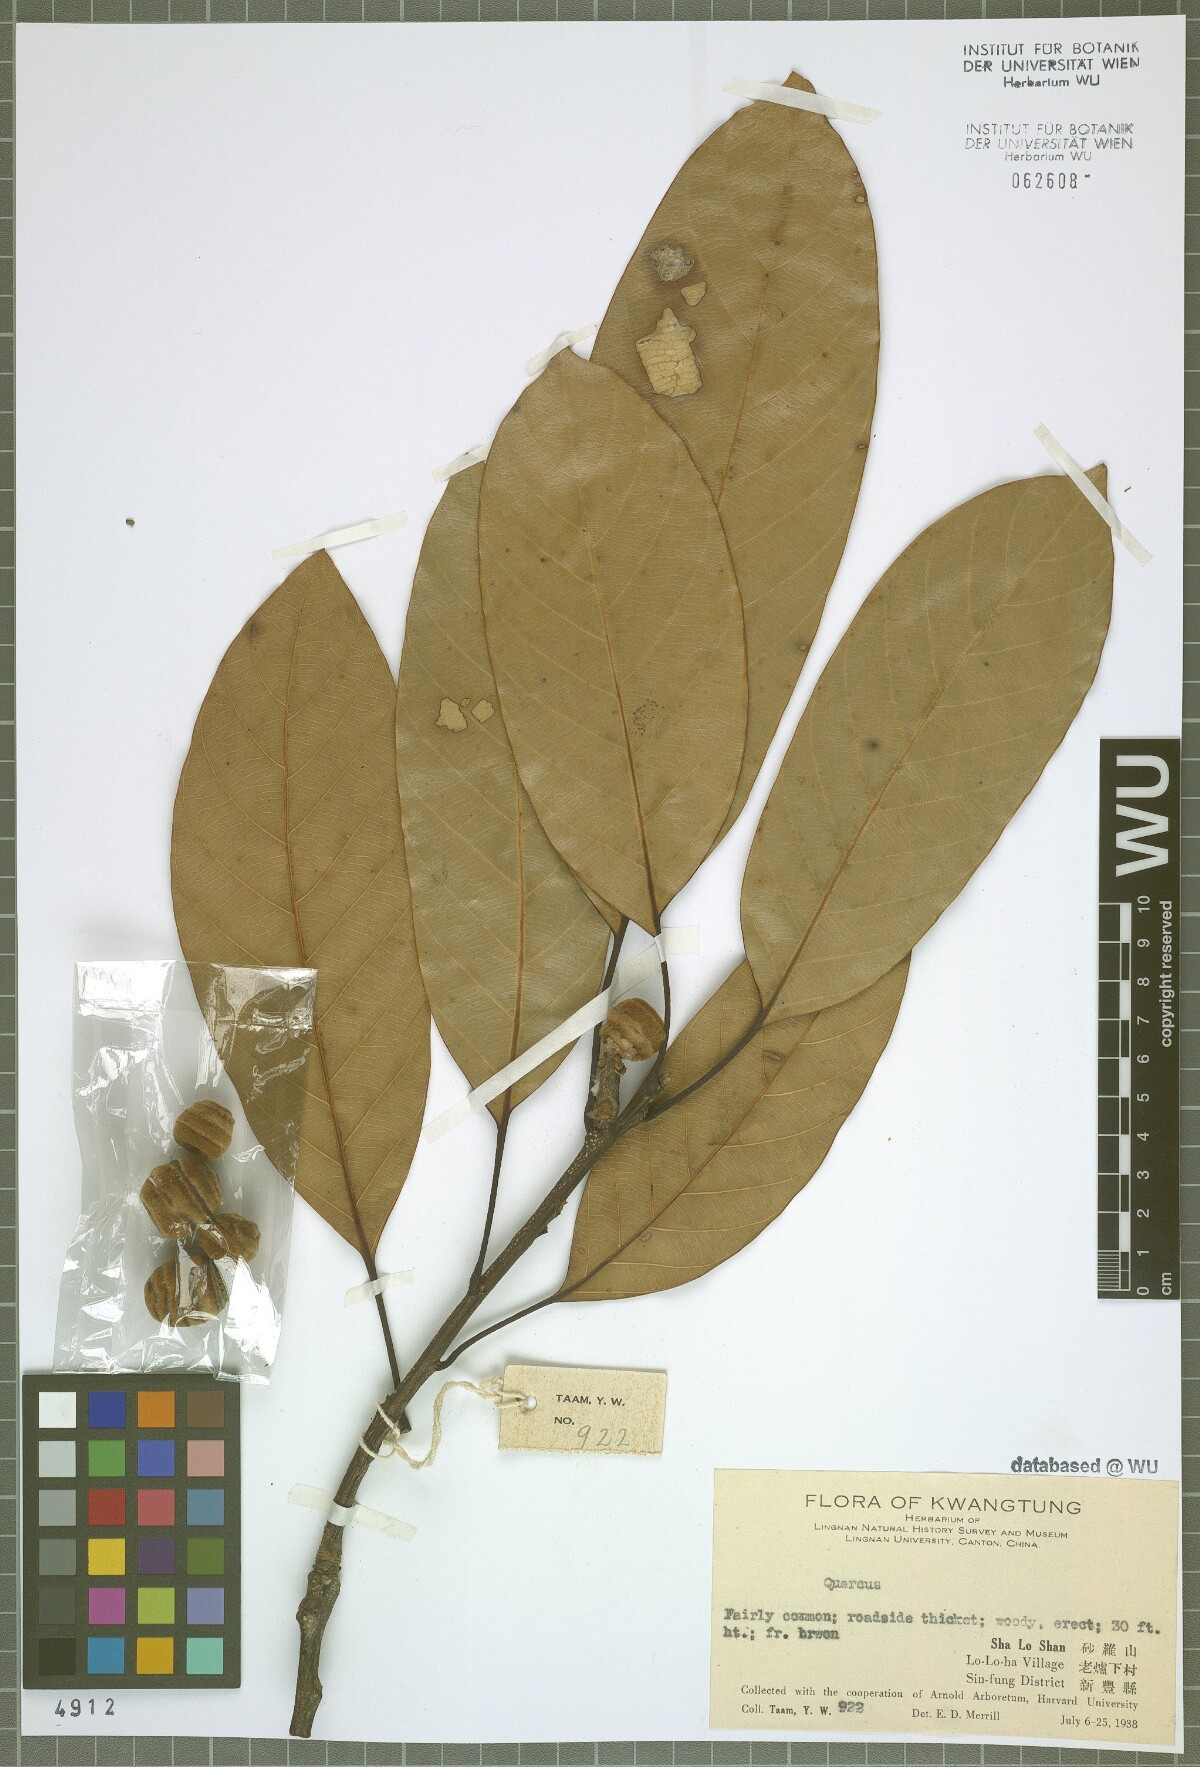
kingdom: Plantae
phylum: Tracheophyta
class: Magnoliopsida
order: Fagales
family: Fagaceae
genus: Quercus
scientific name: Quercus
